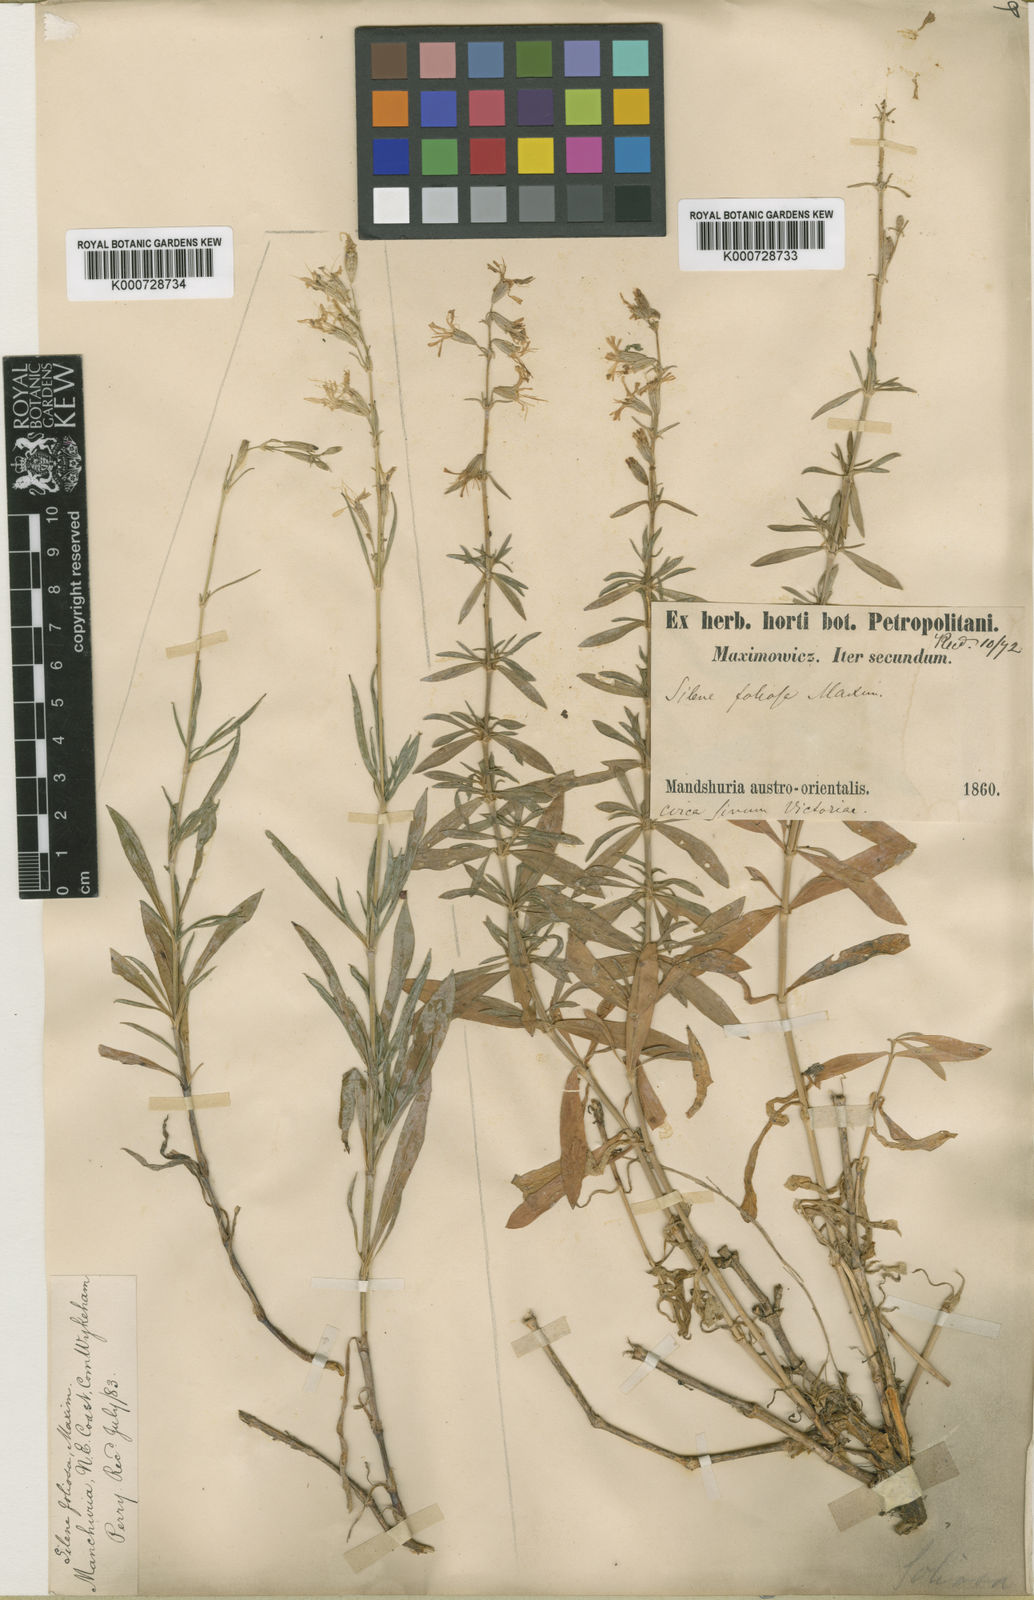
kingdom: Plantae
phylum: Tracheophyta
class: Magnoliopsida
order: Caryophyllales
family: Caryophyllaceae
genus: Silene
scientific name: Silene foliosa
